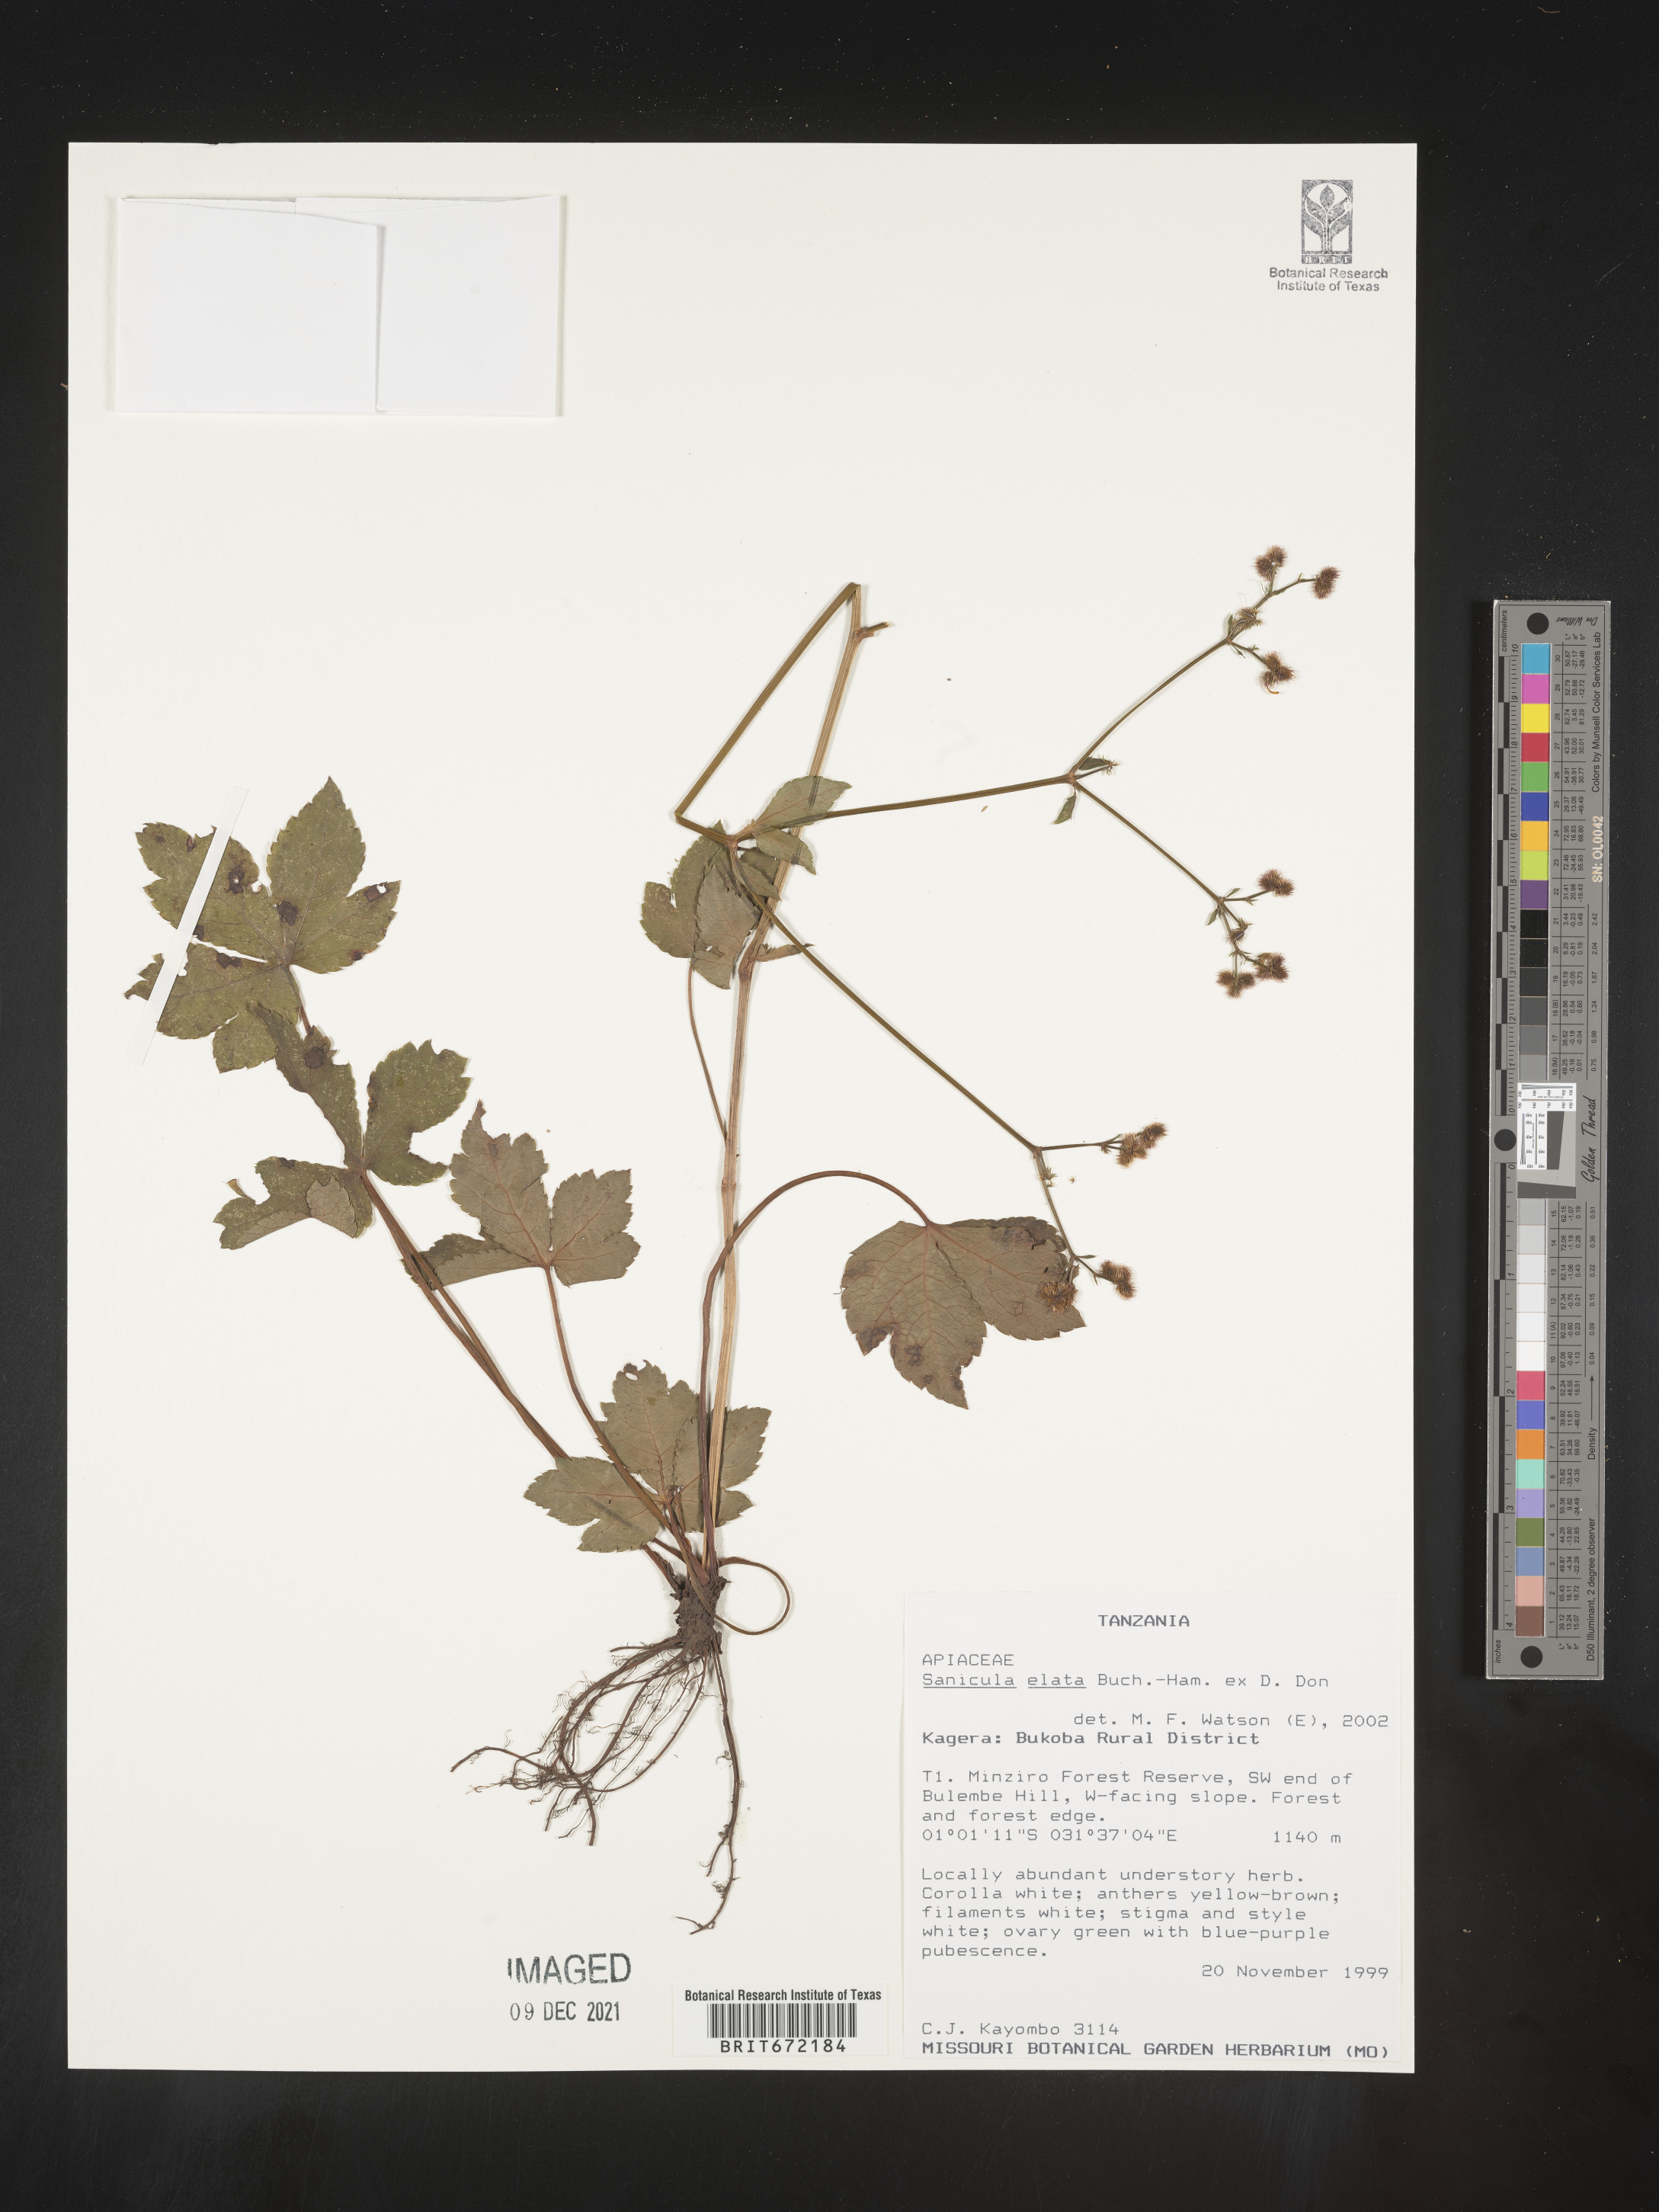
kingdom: Plantae
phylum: Tracheophyta
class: Magnoliopsida
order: Apiales
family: Apiaceae
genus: Sanicula
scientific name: Sanicula
